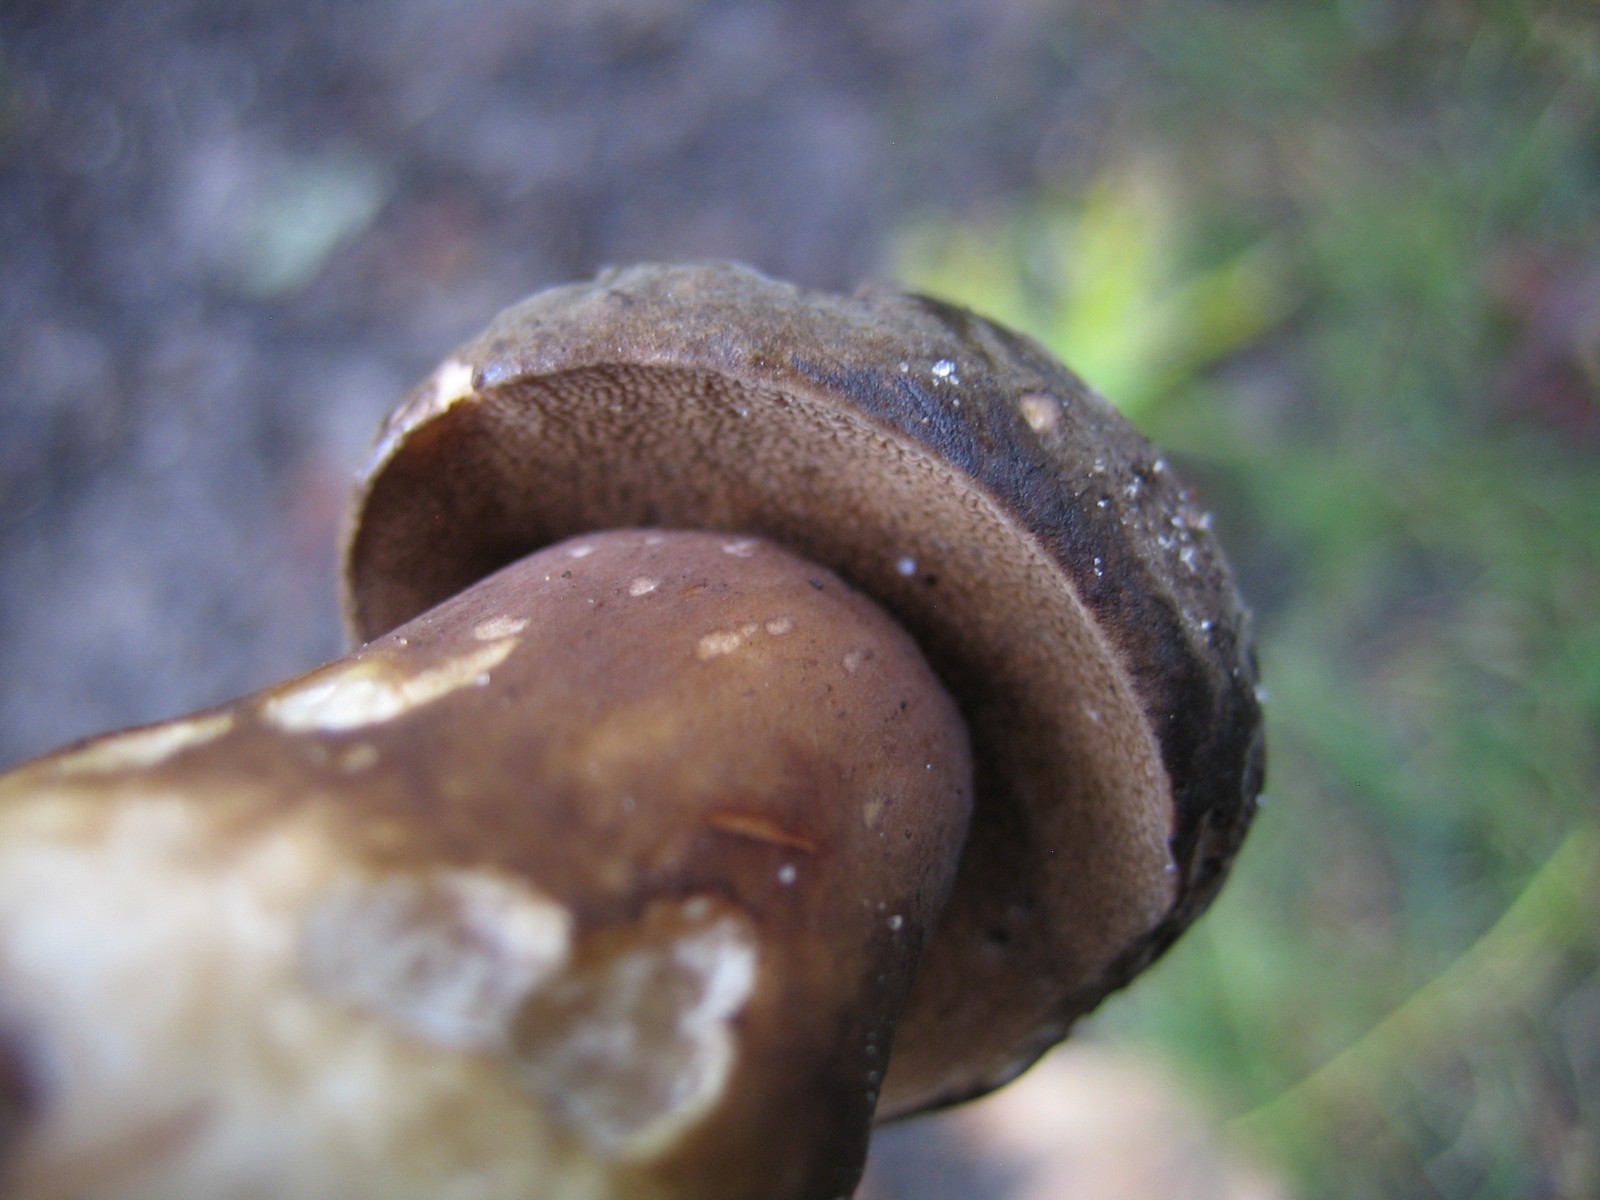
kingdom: Fungi
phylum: Basidiomycota
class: Agaricomycetes
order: Boletales
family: Boletaceae
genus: Porphyrellus
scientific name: Porphyrellus porphyrosporus
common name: sodrørhat
